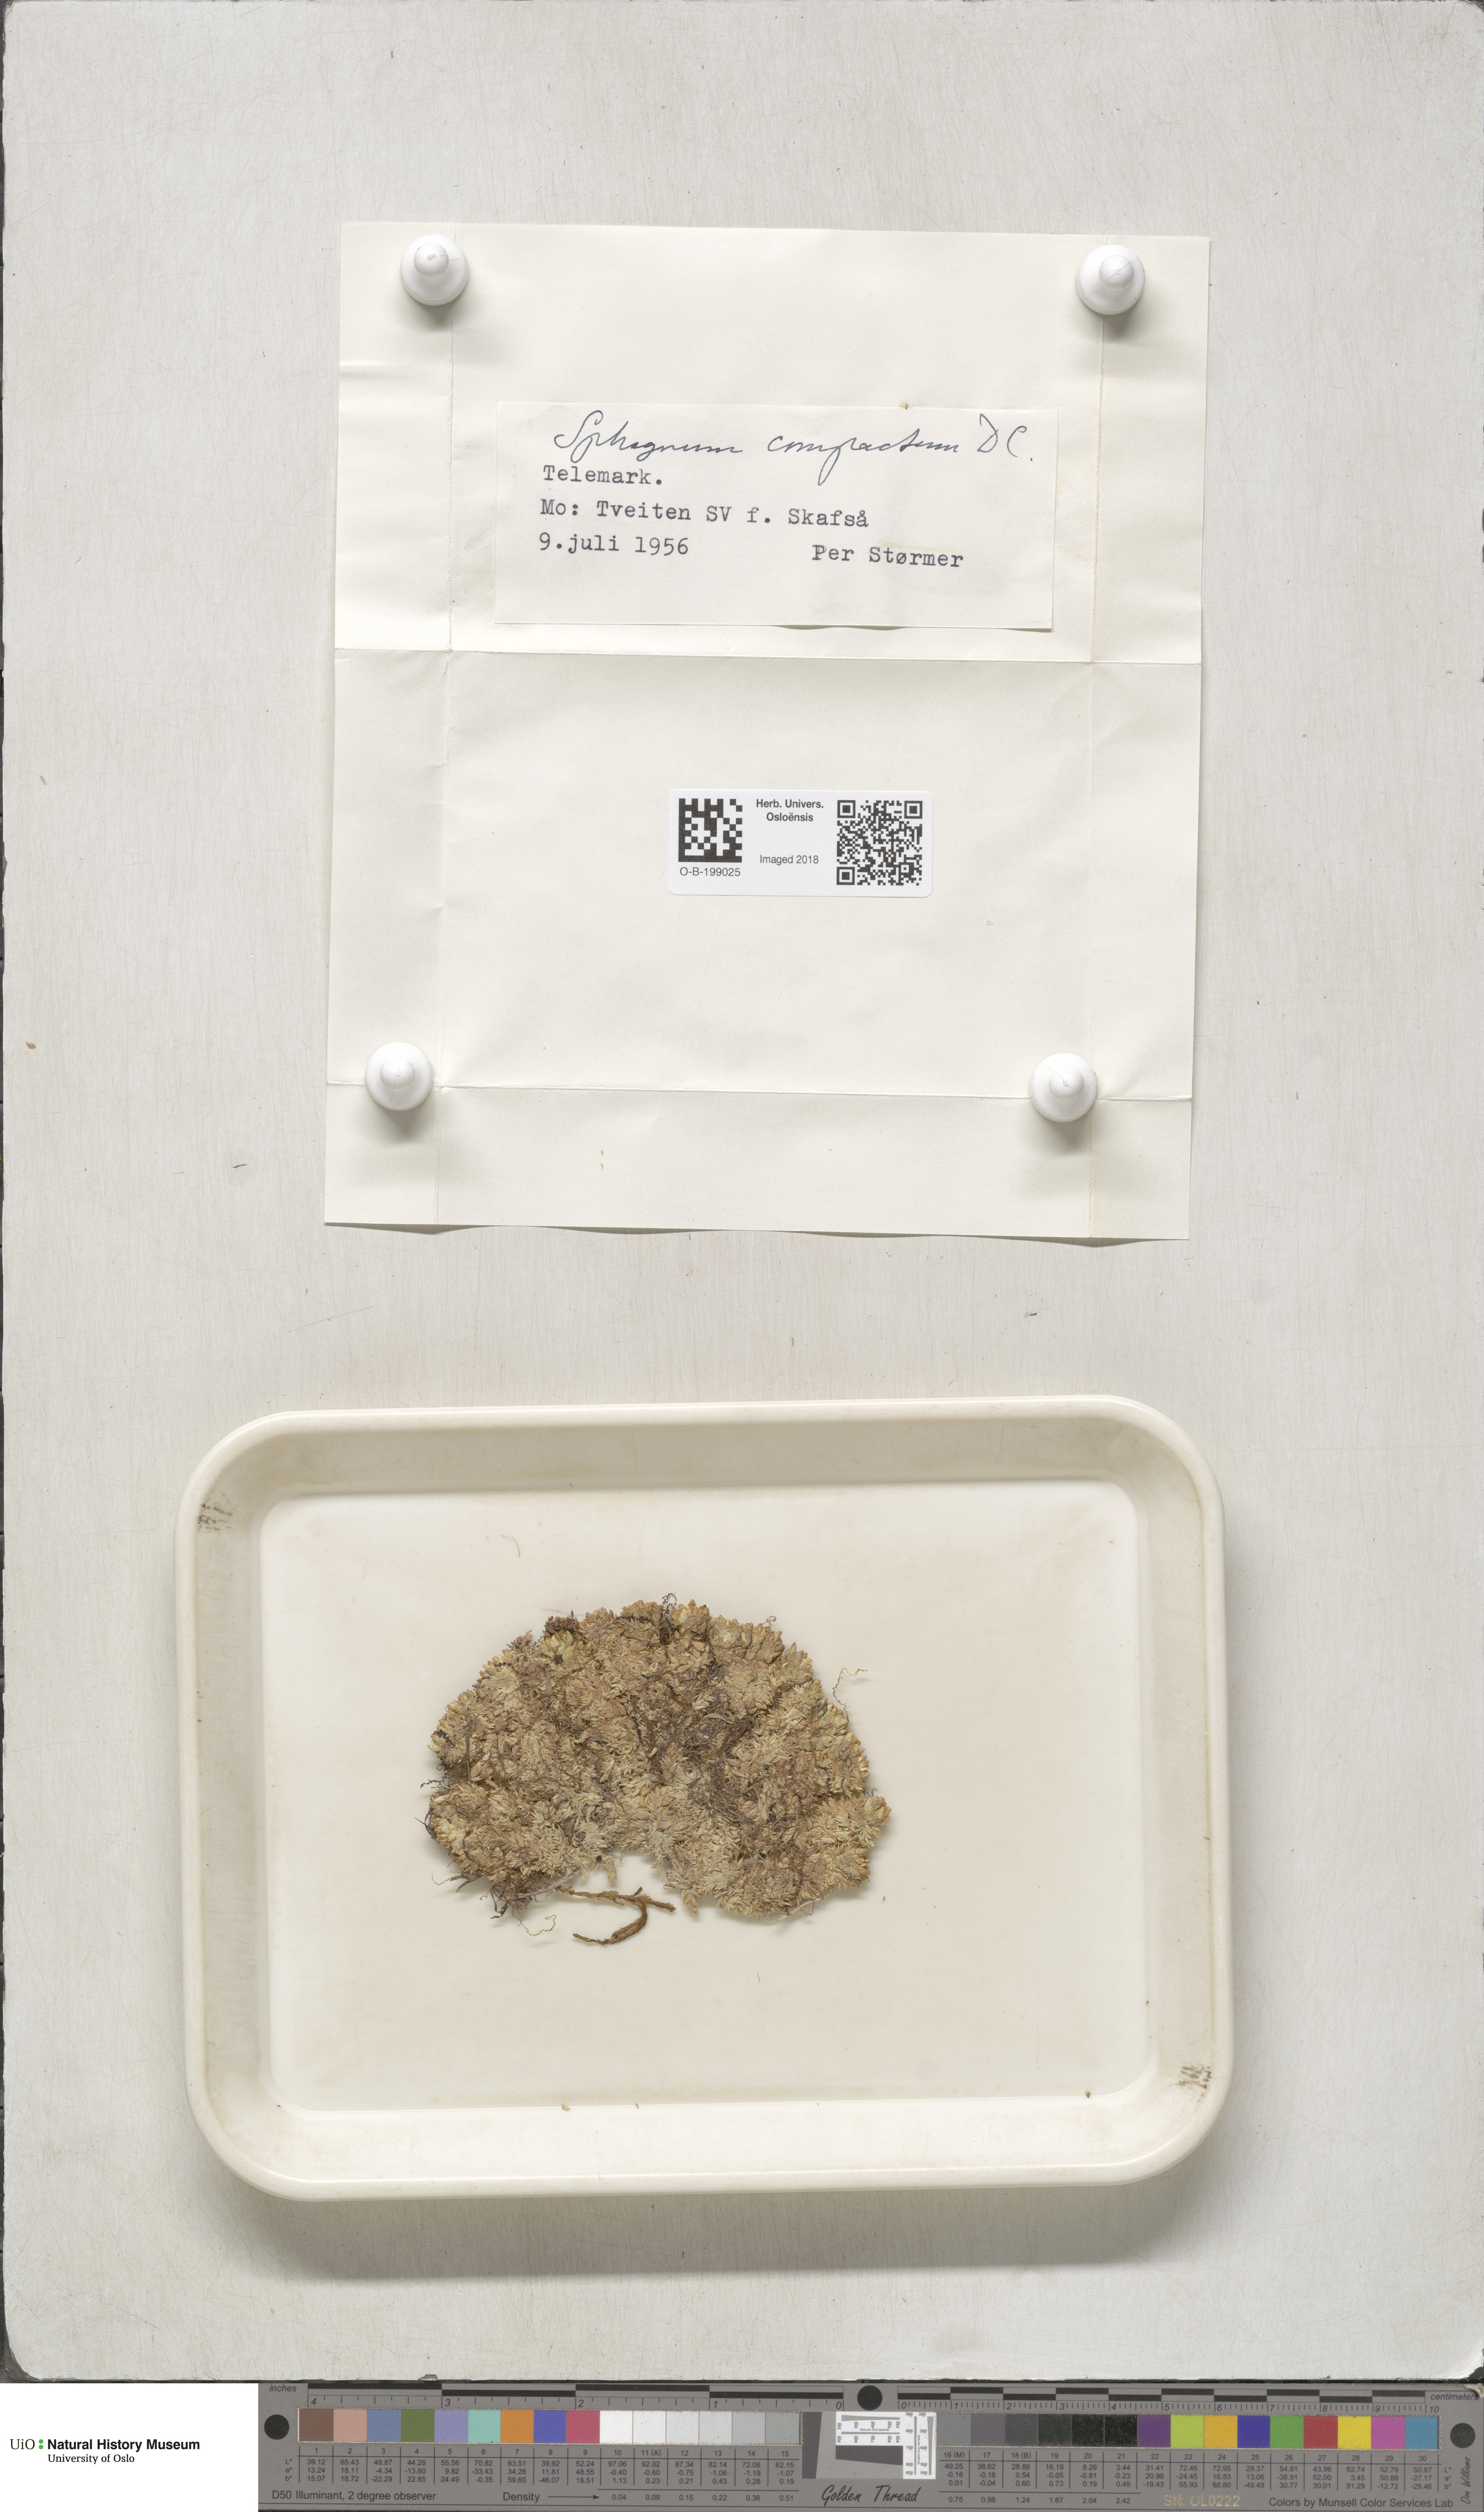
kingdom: Plantae
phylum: Bryophyta
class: Sphagnopsida
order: Sphagnales
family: Sphagnaceae
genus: Sphagnum
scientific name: Sphagnum compactum
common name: Compact peat moss
